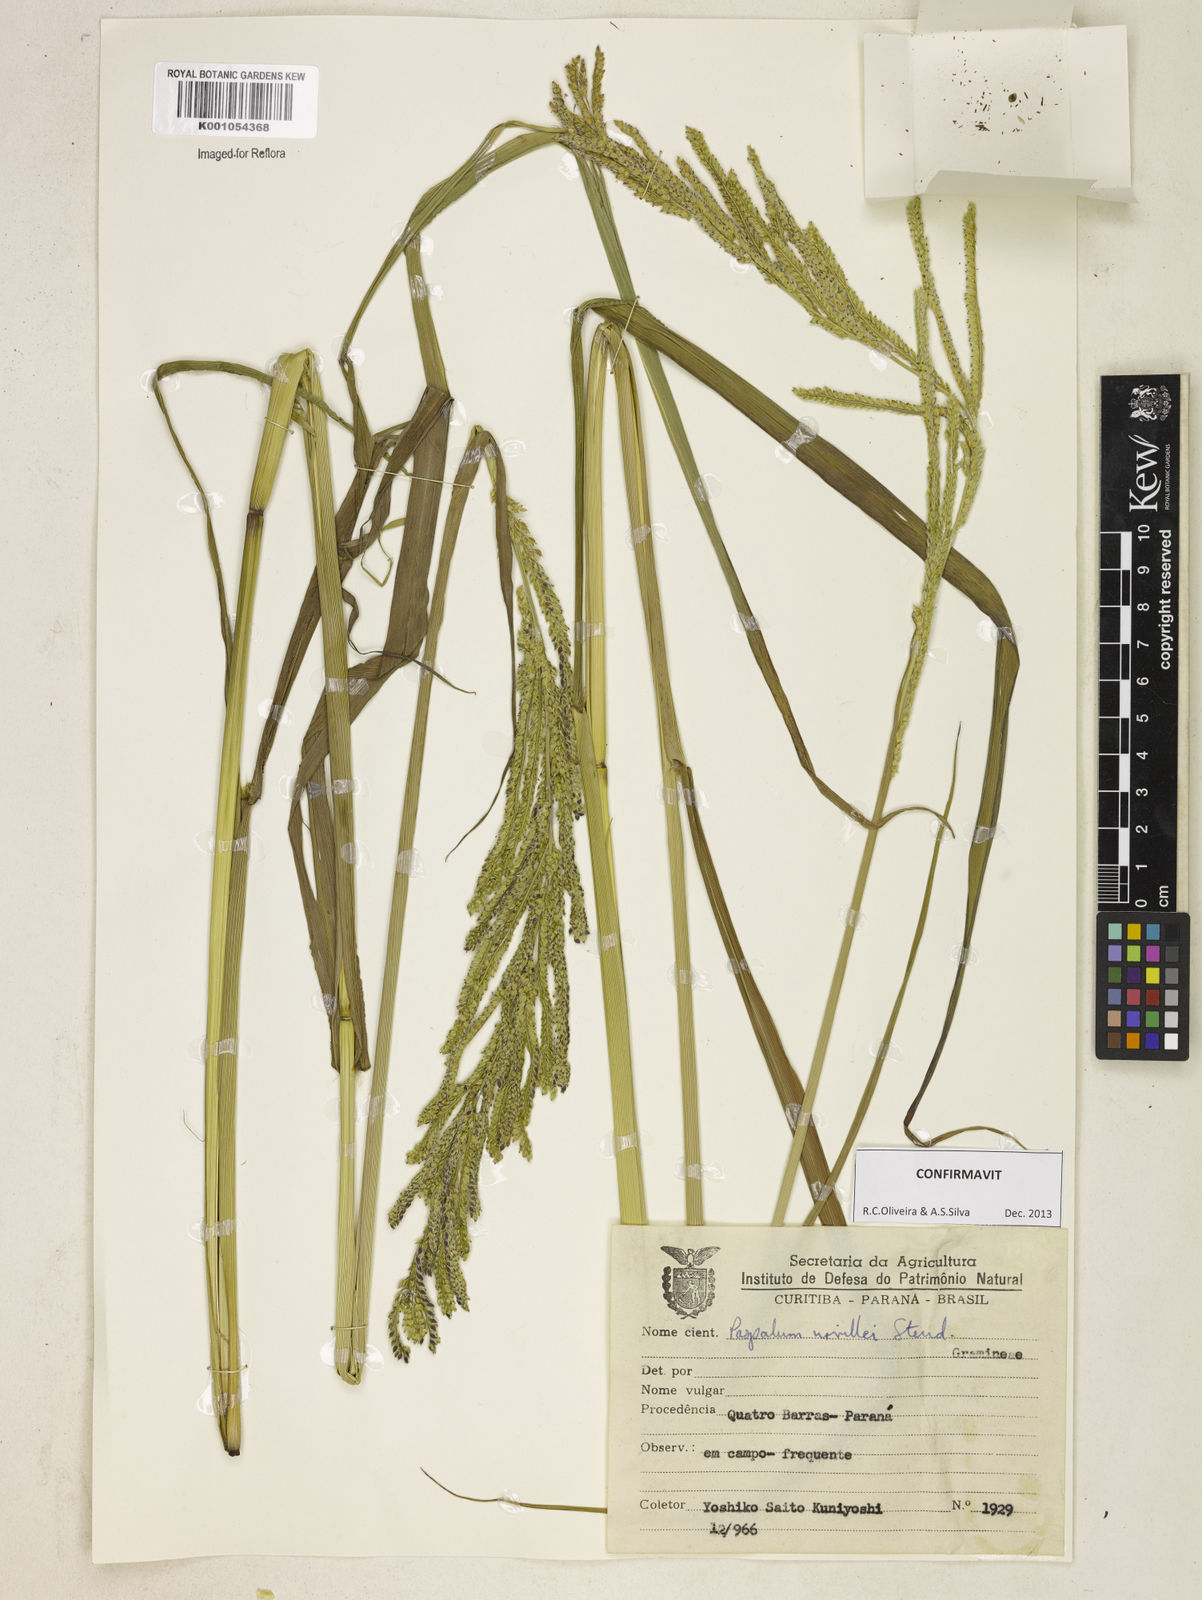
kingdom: Plantae
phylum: Tracheophyta
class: Liliopsida
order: Poales
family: Poaceae
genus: Paspalum
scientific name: Paspalum urvillei
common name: Vasey's grass
